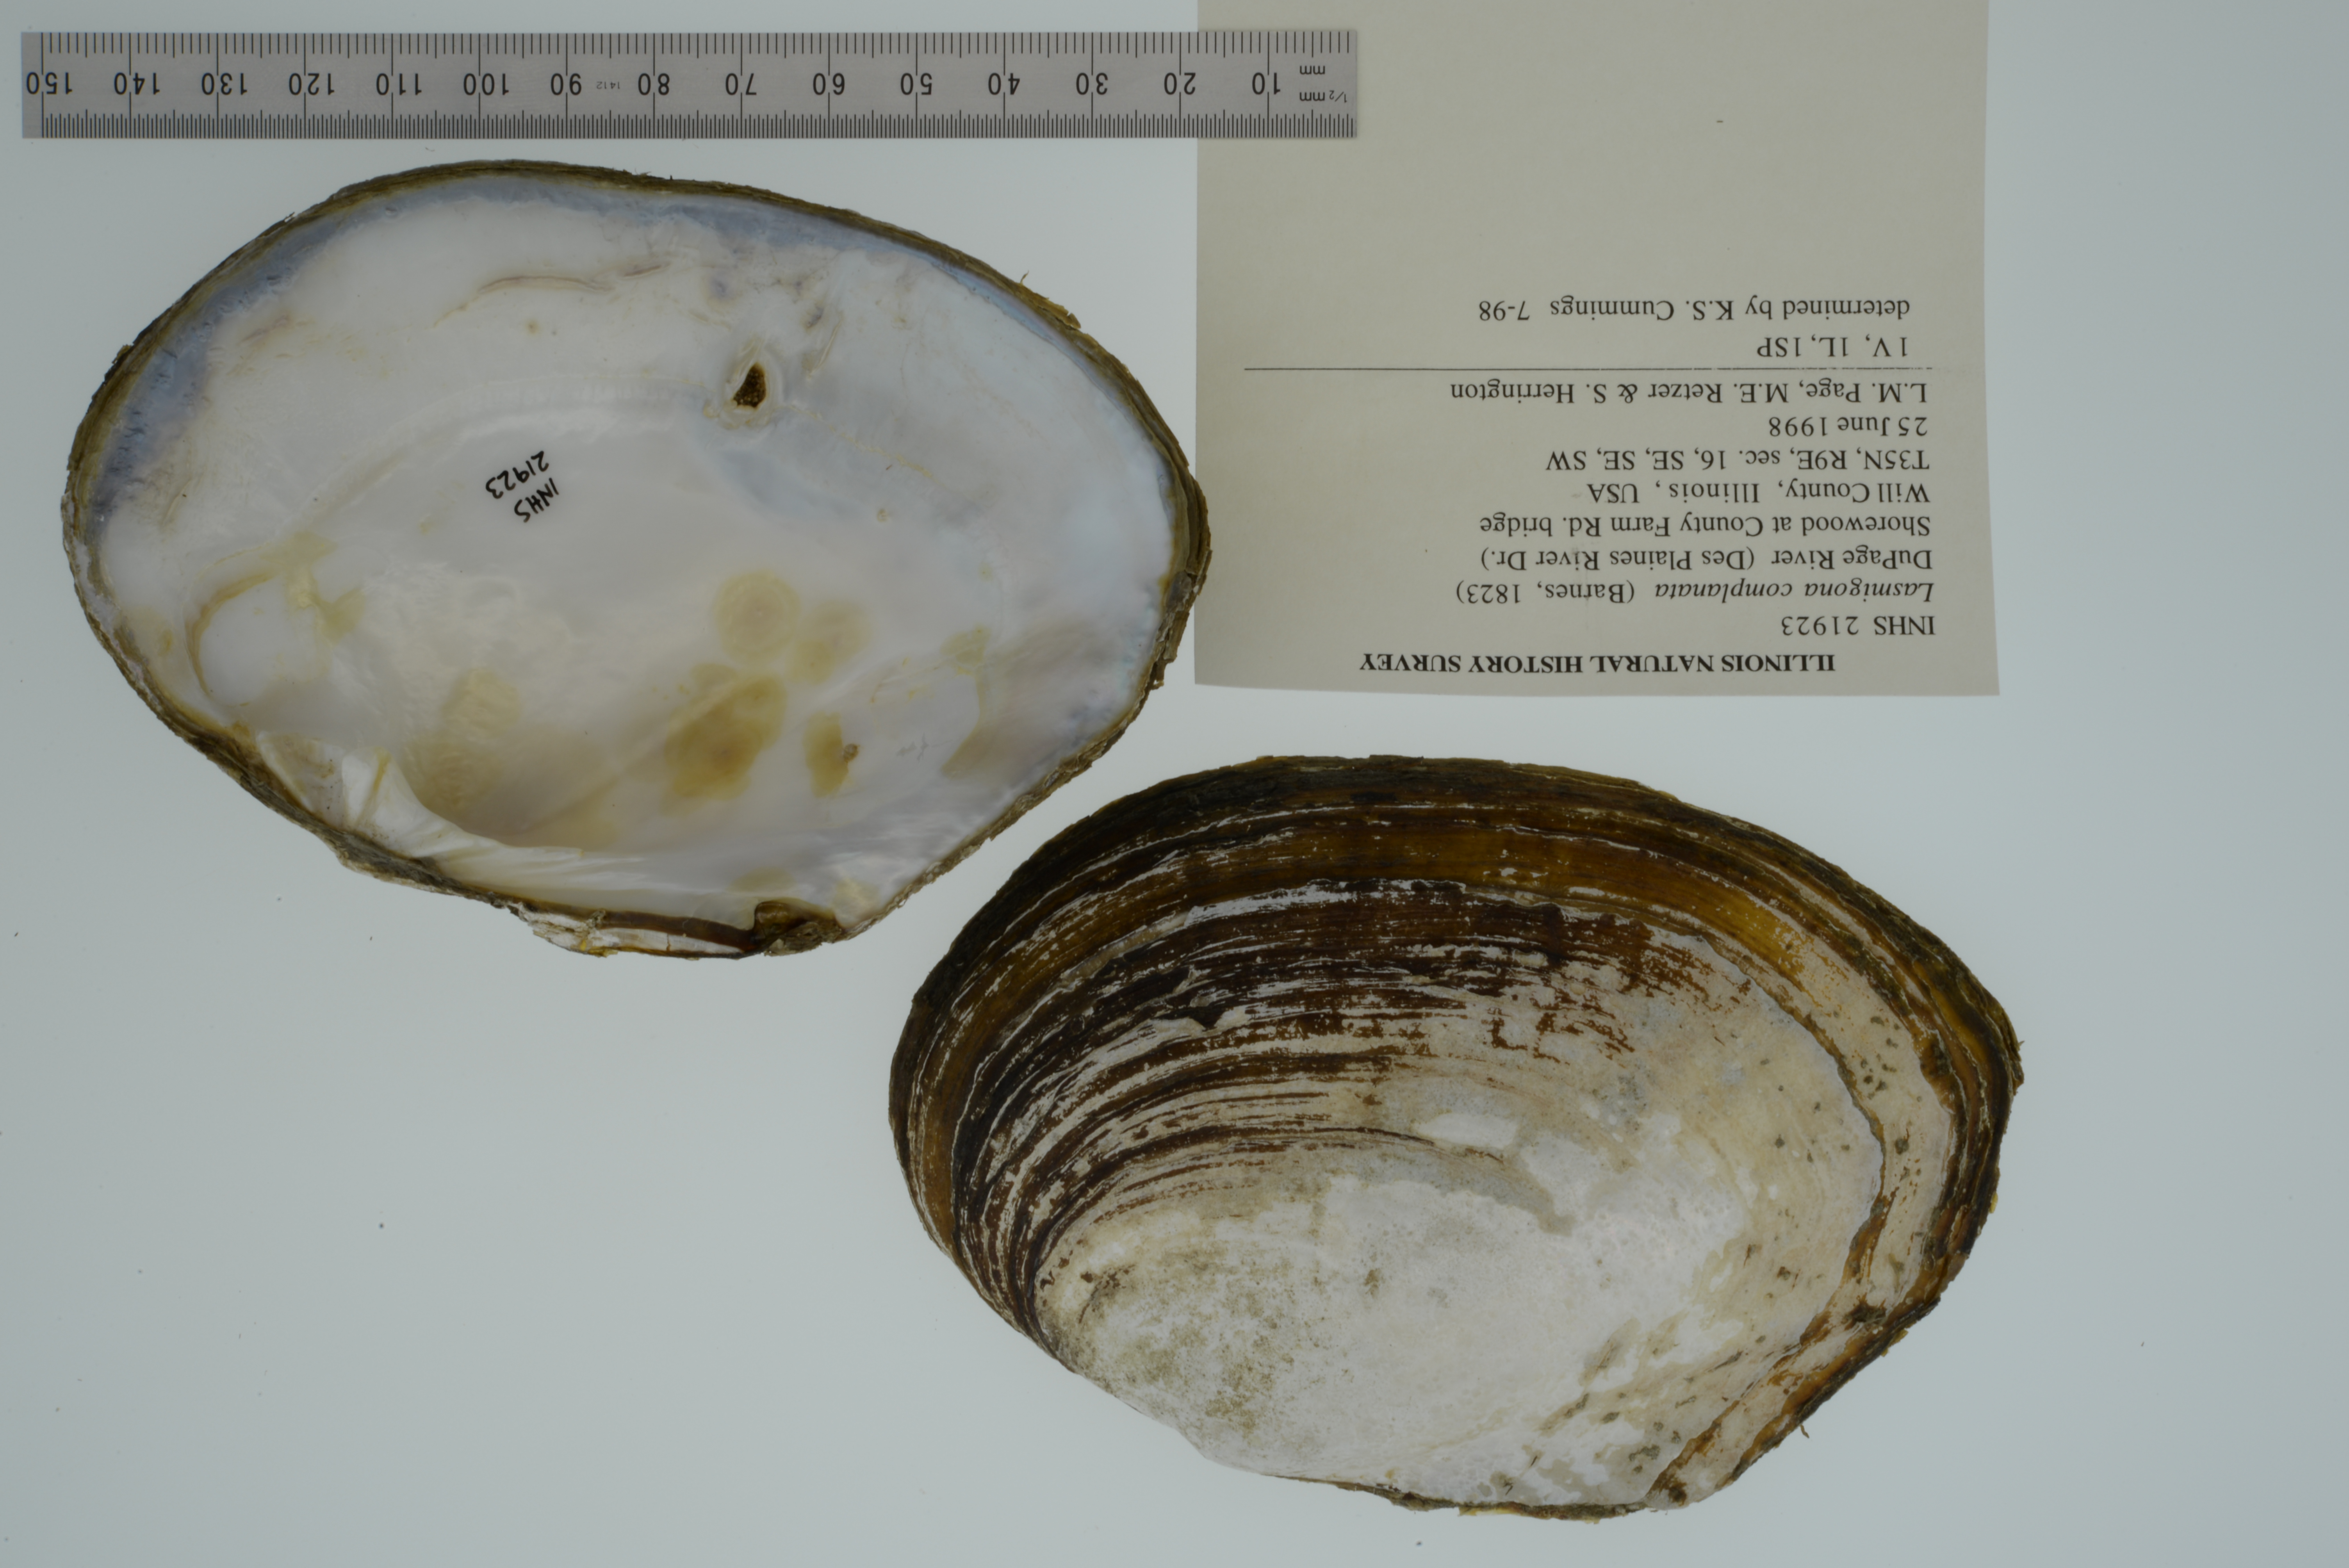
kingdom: Animalia
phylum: Mollusca
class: Bivalvia
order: Unionida
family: Unionidae
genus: Lasmigona
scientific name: Lasmigona complanata
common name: White heelsplitter
